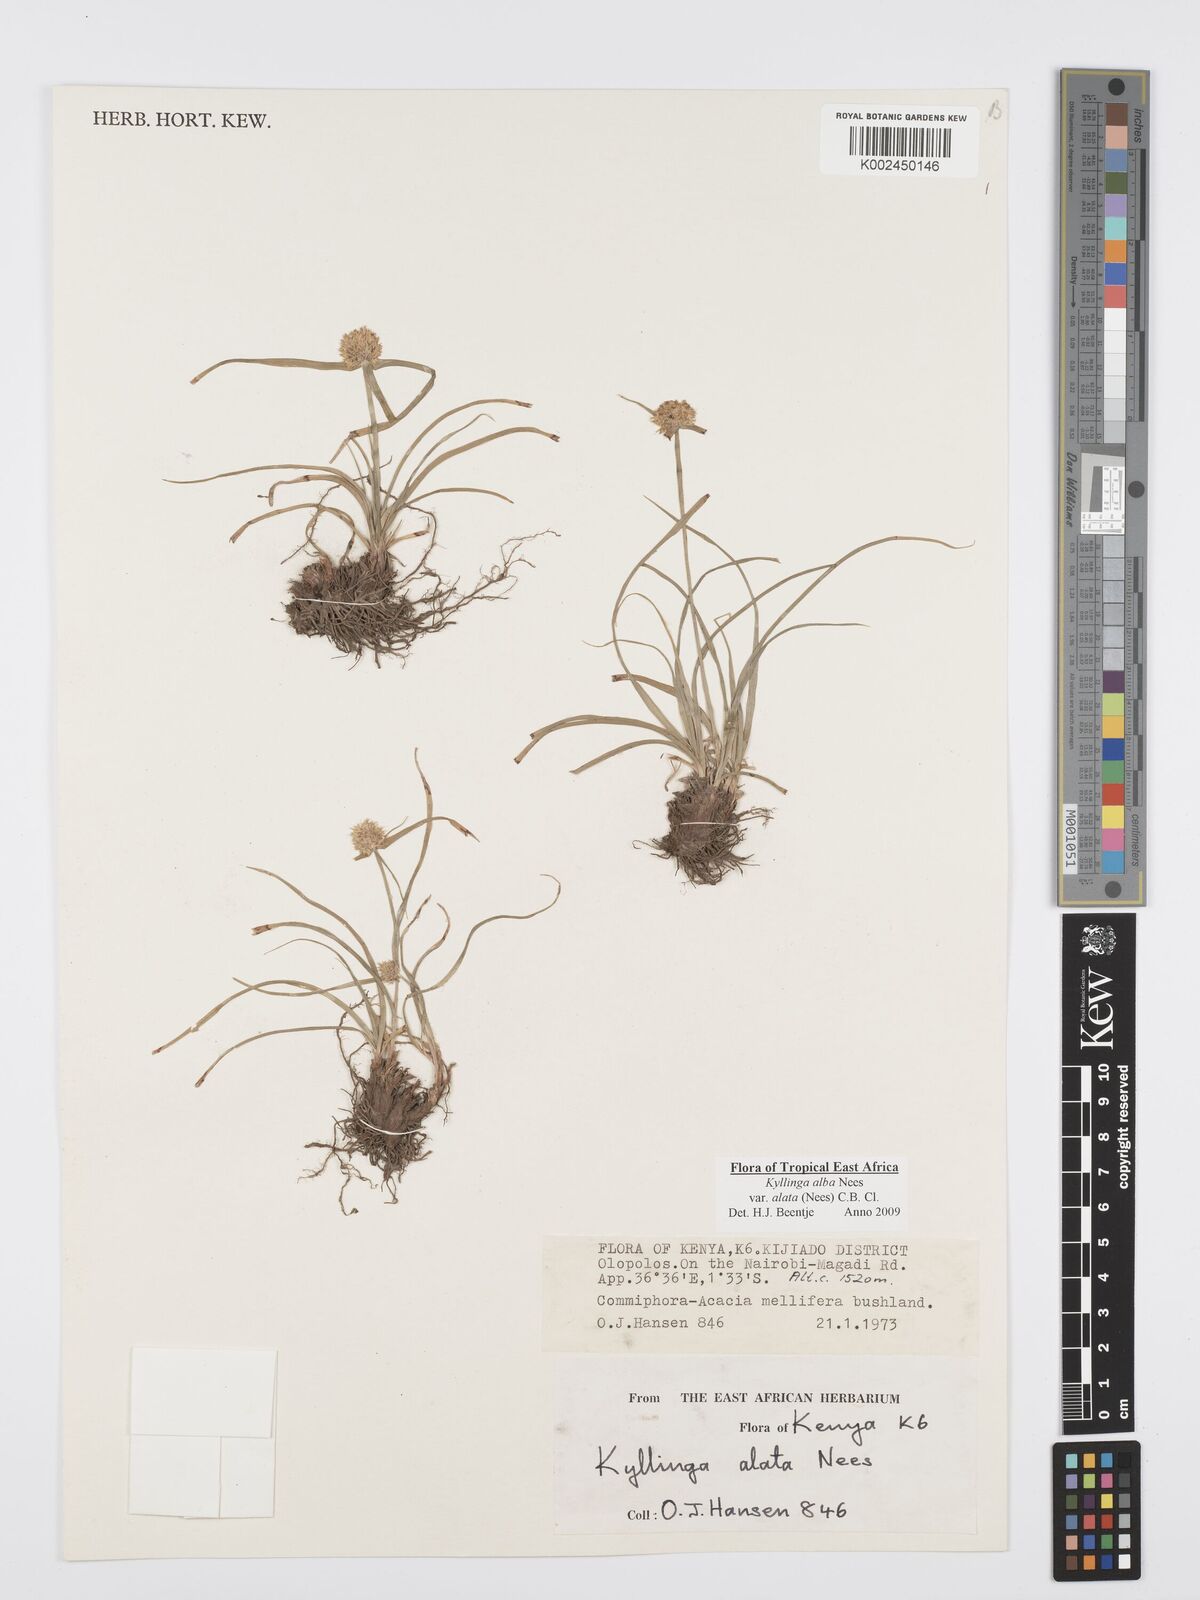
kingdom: Plantae
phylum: Tracheophyta
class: Liliopsida
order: Poales
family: Cyperaceae
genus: Cyperus
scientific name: Cyperus alatus
